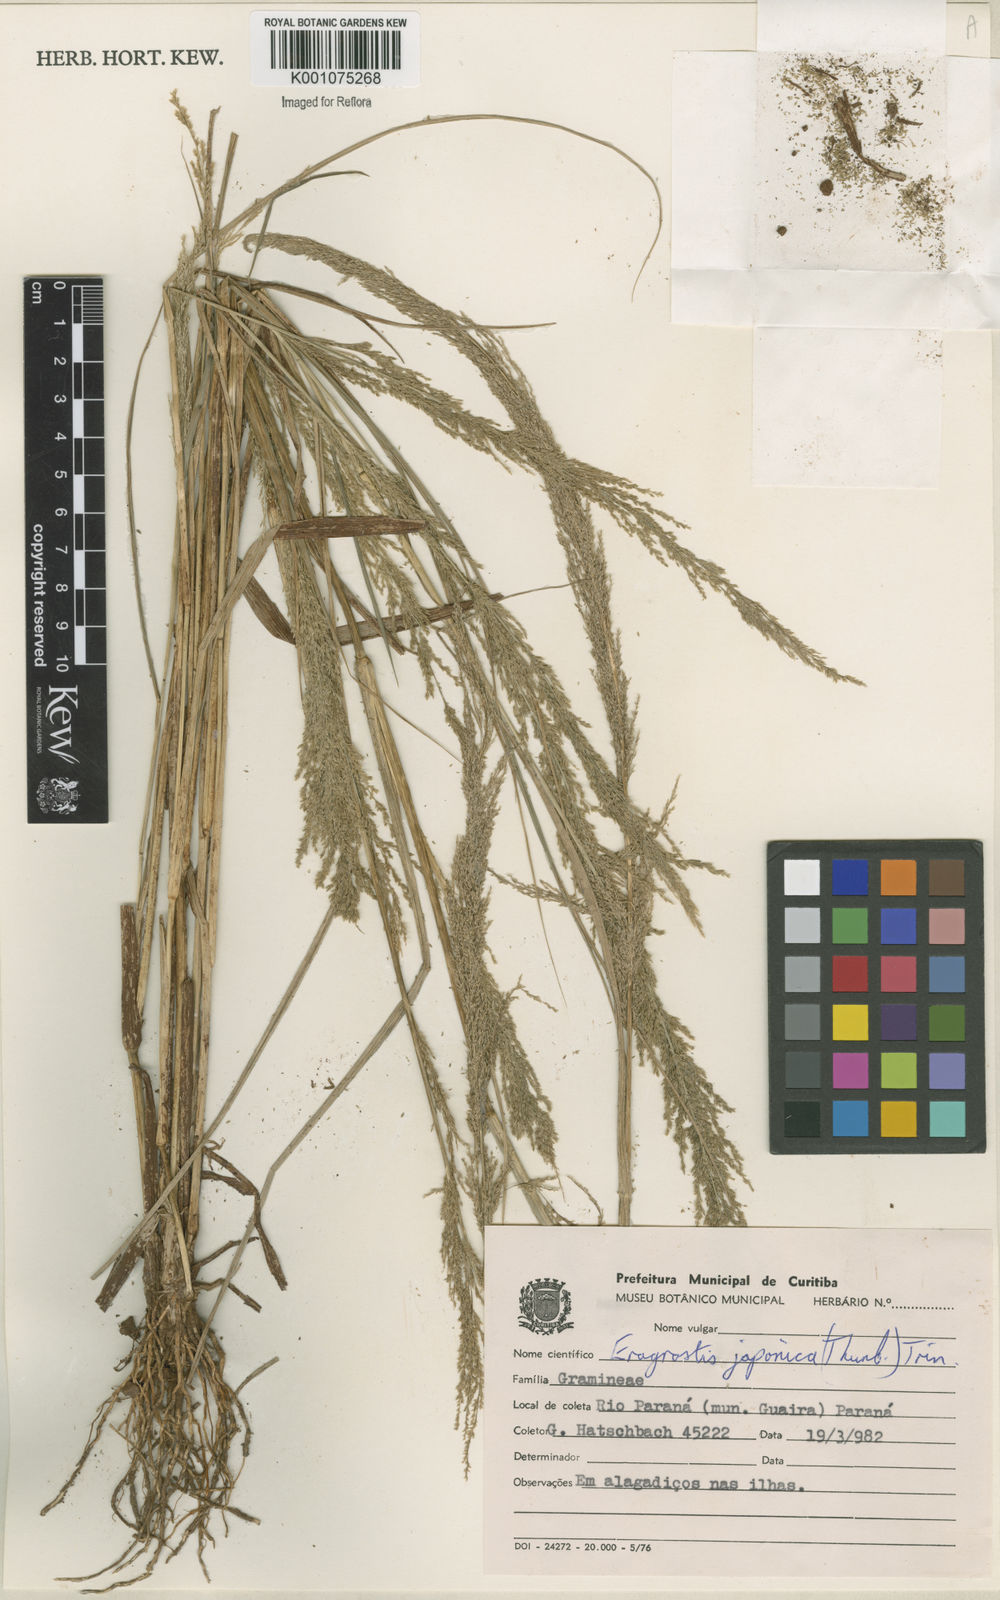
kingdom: Plantae
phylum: Tracheophyta
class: Liliopsida
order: Poales
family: Poaceae
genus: Eragrostis
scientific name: Eragrostis japonica
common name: Pond lovegrass
